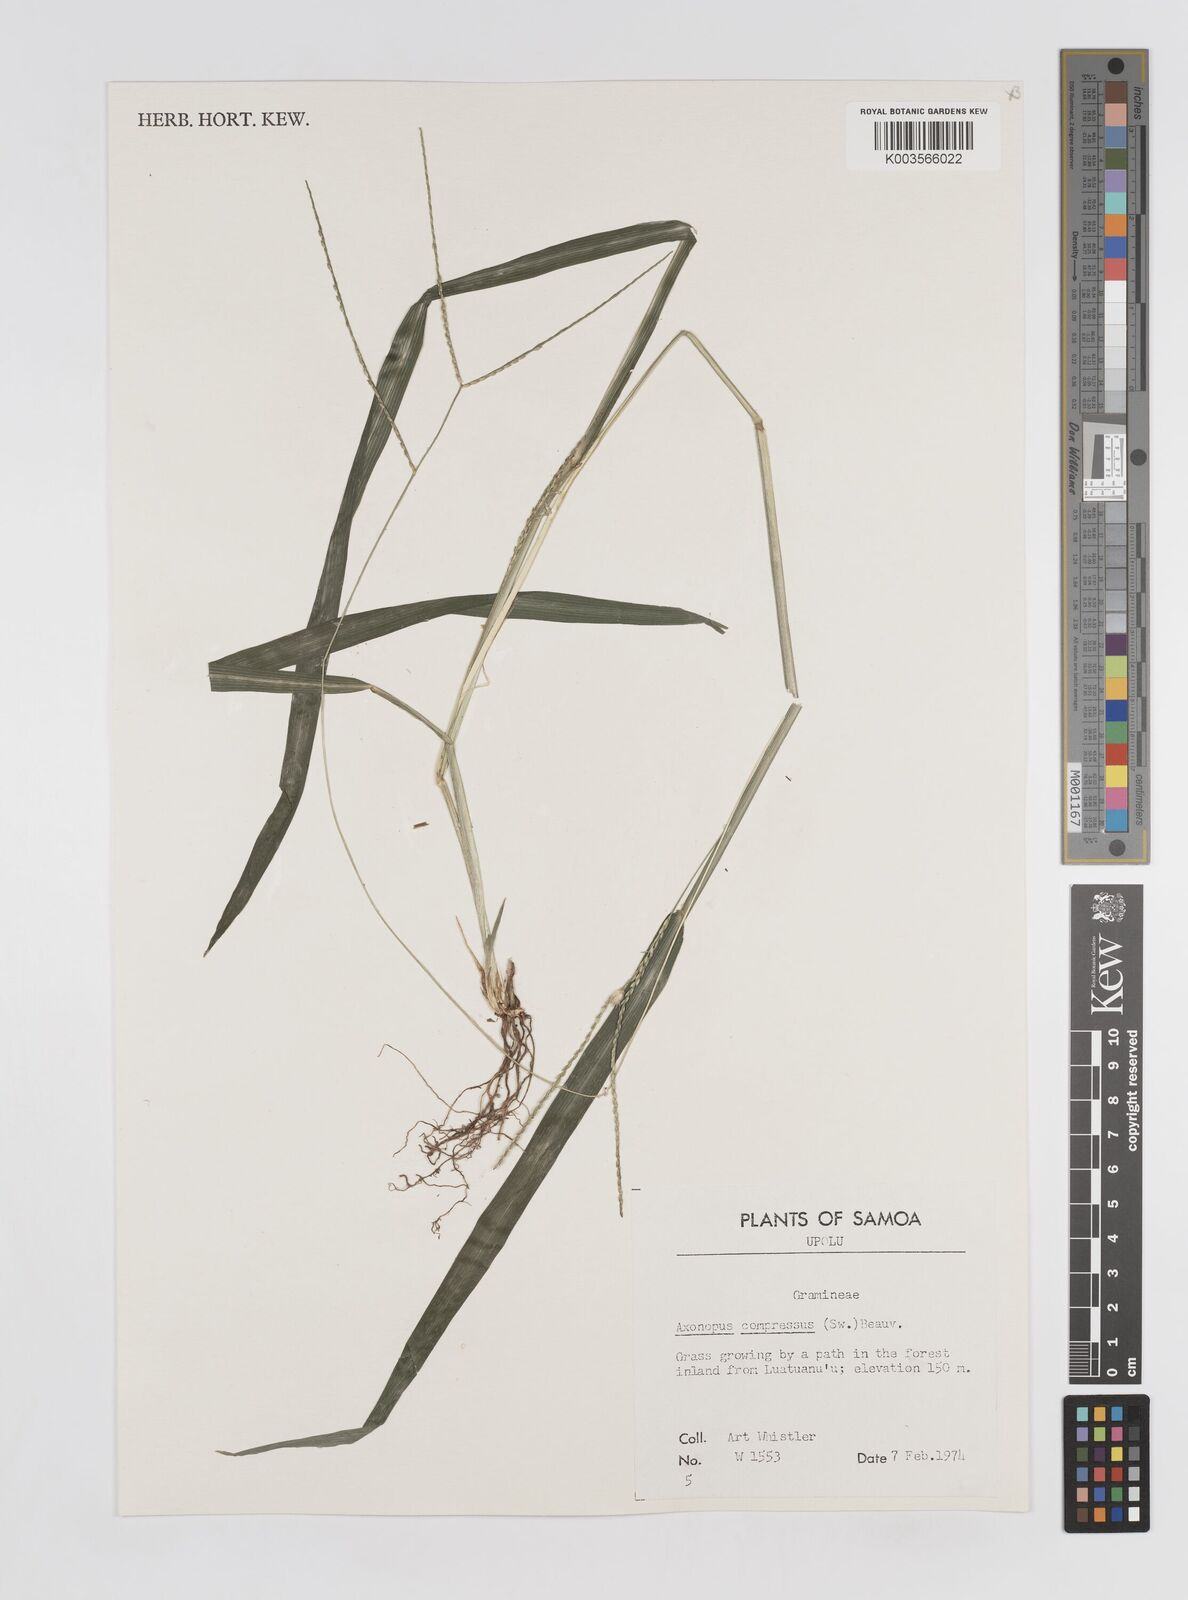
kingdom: Plantae
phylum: Tracheophyta
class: Liliopsida
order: Poales
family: Poaceae
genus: Axonopus
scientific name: Axonopus compressus
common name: American carpet grass
